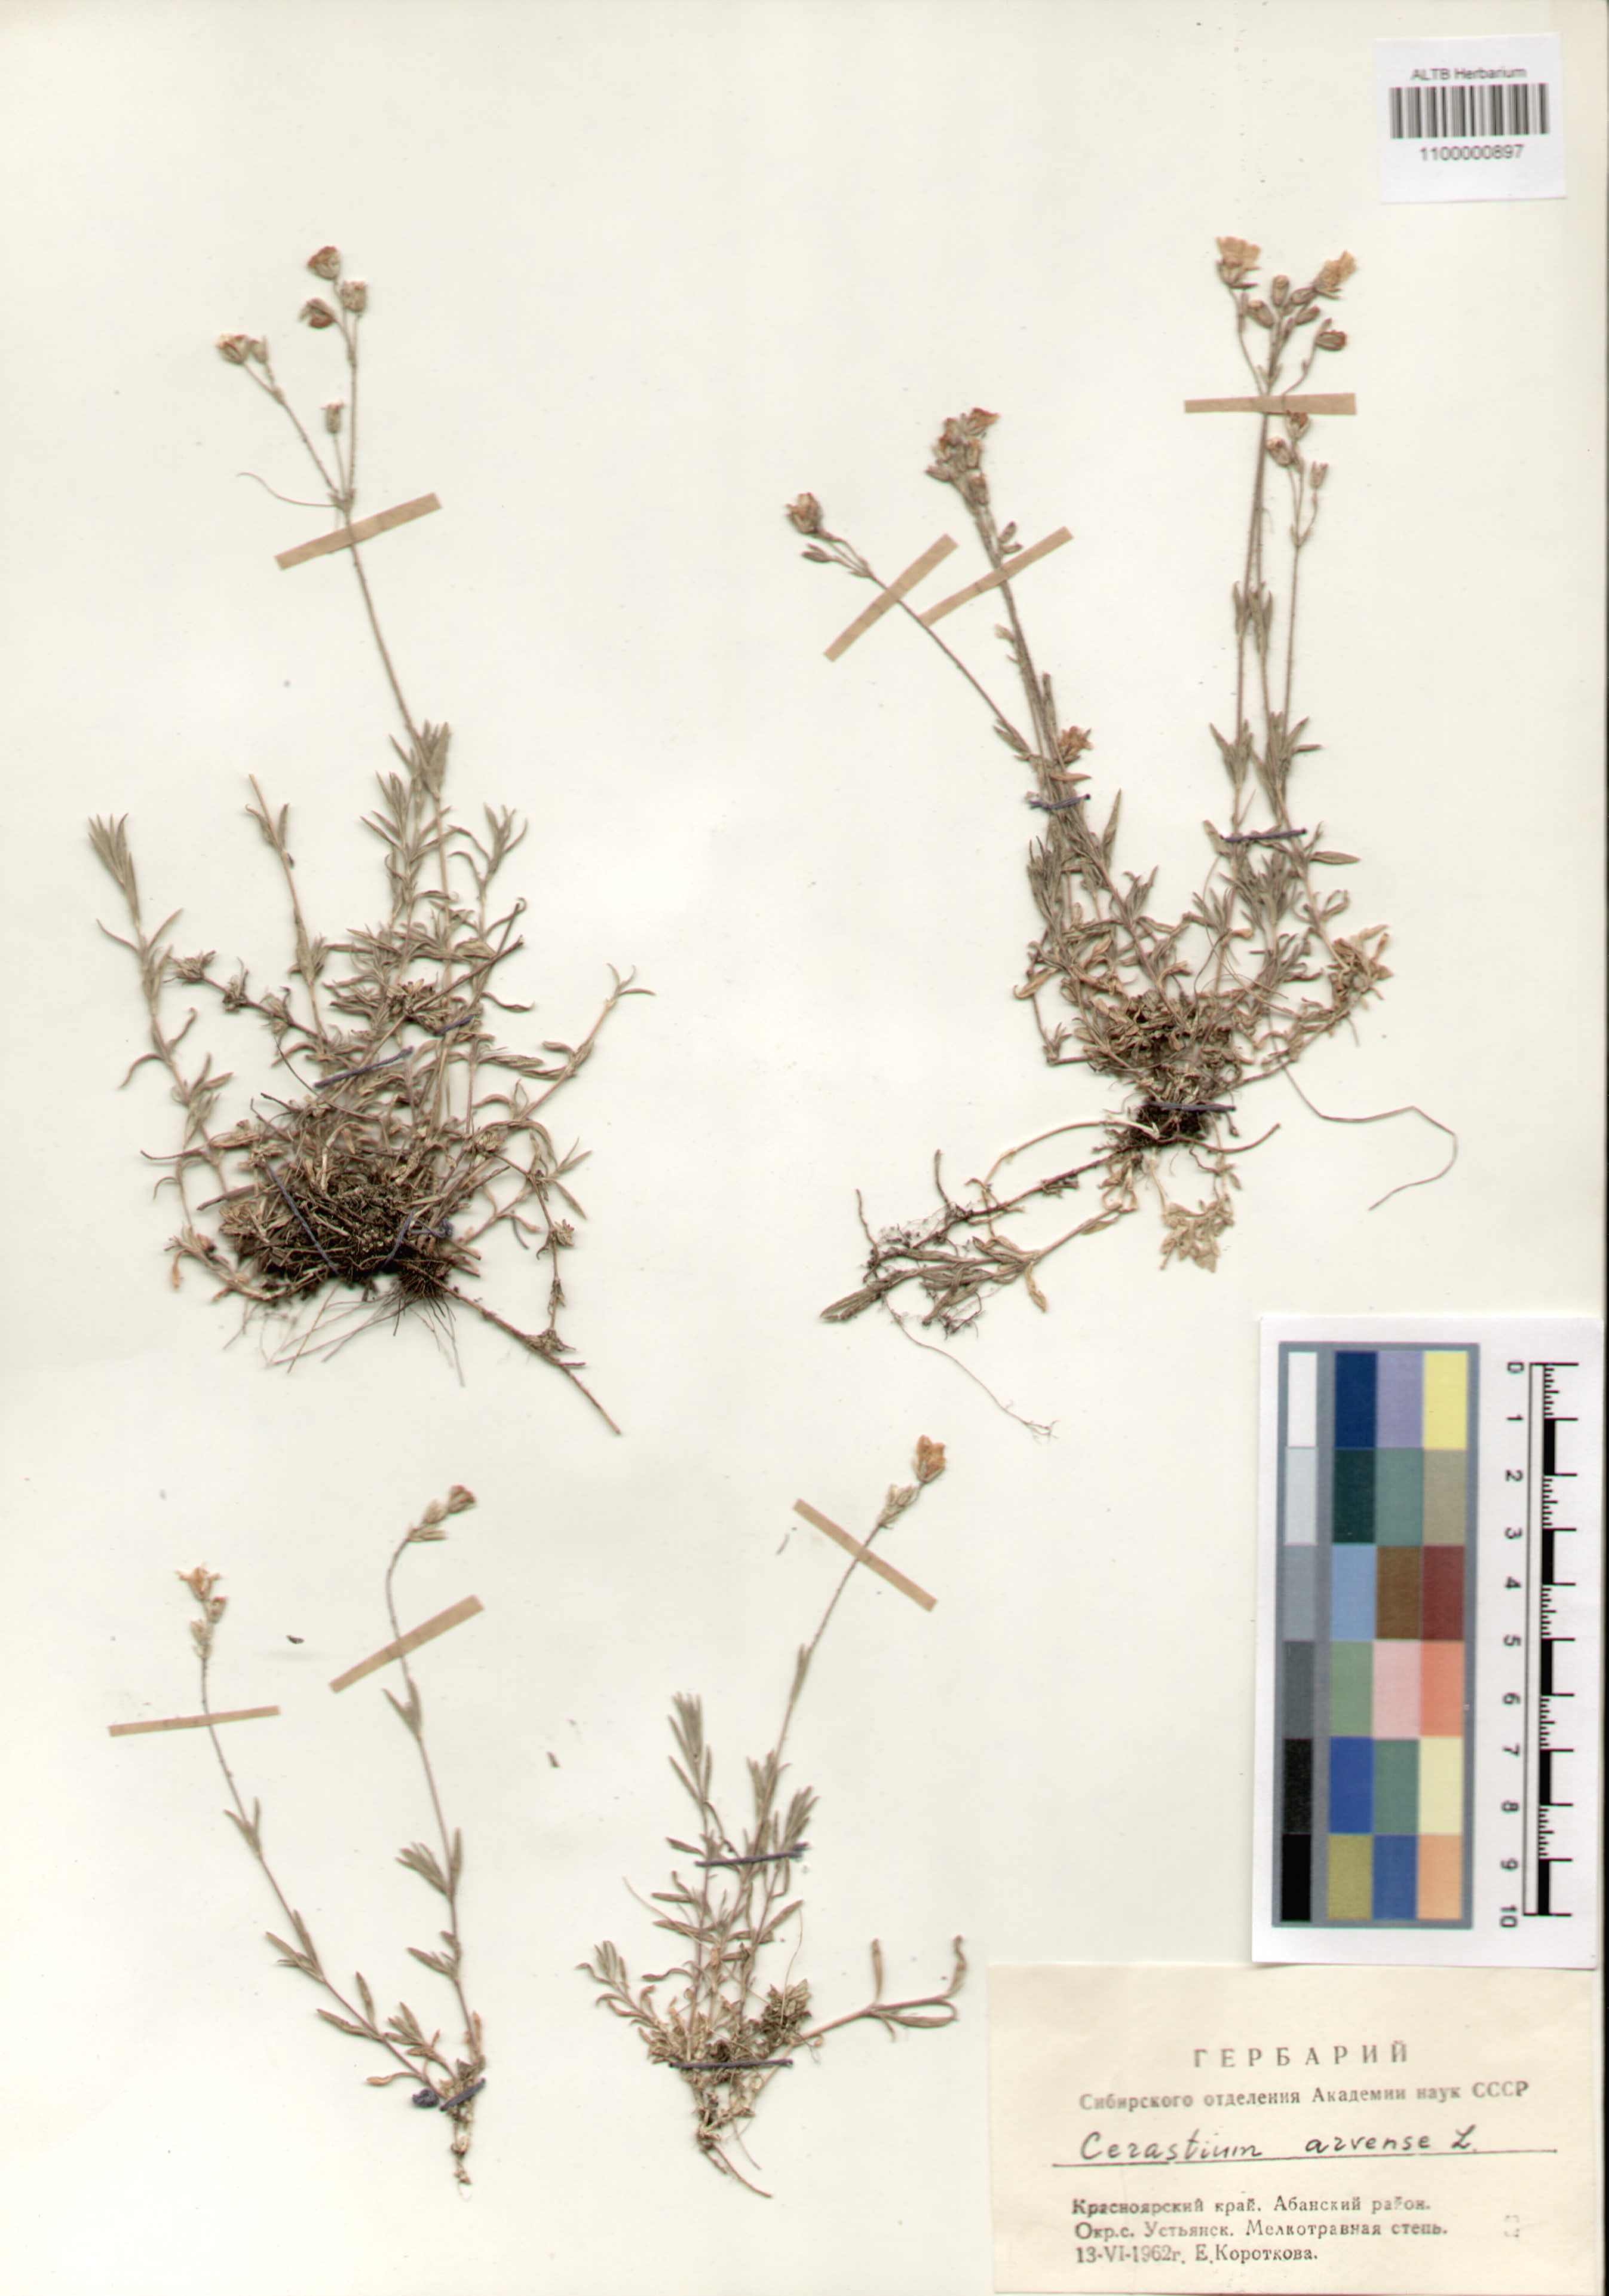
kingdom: Plantae
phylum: Tracheophyta
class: Magnoliopsida
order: Caryophyllales
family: Caryophyllaceae
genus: Cerastium
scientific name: Cerastium arvense
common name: Field mouse-ear
